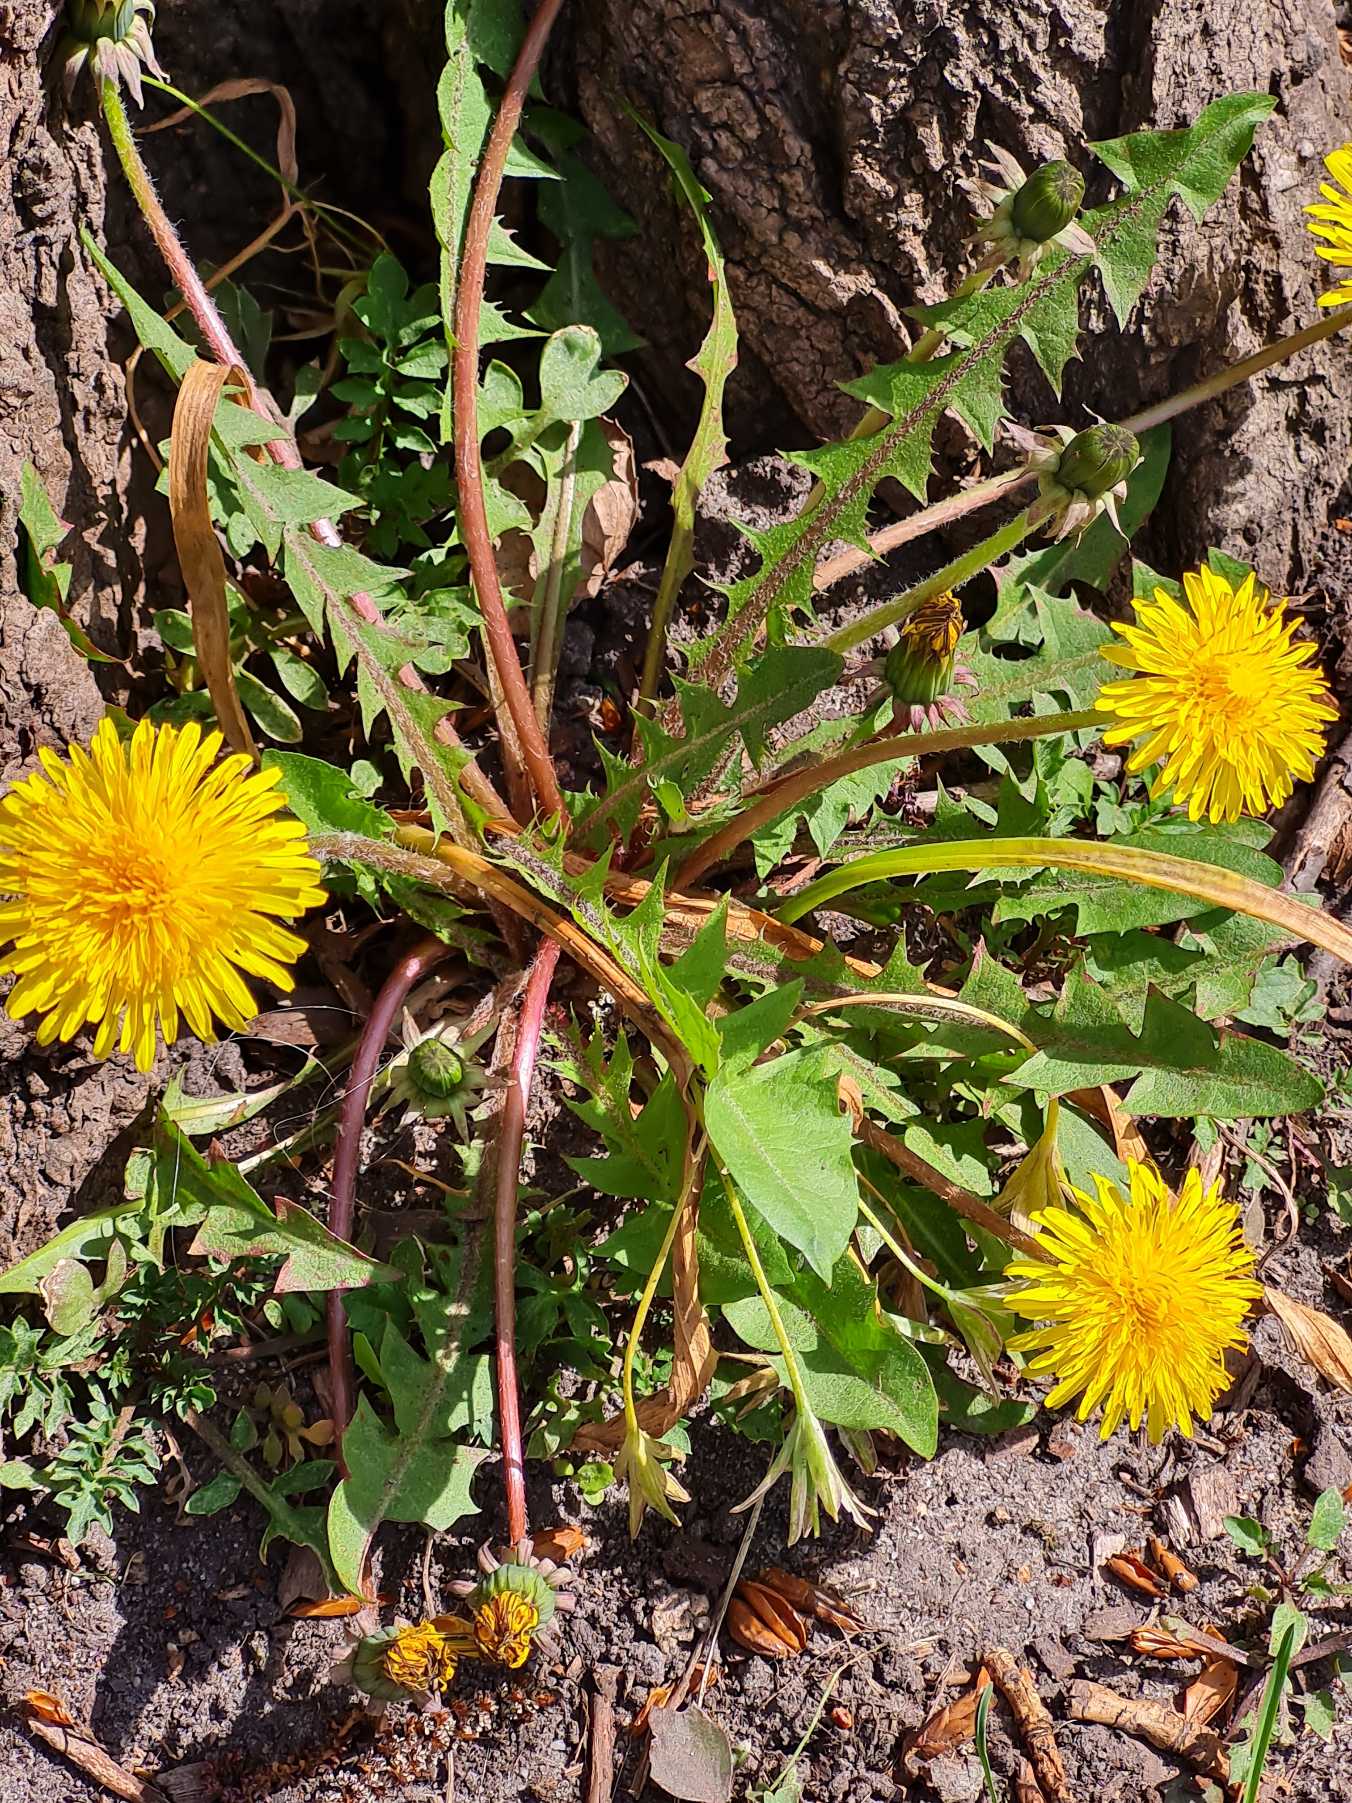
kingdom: Plantae
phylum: Tracheophyta
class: Magnoliopsida
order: Asterales
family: Asteraceae
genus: Taraxacum
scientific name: Taraxacum
